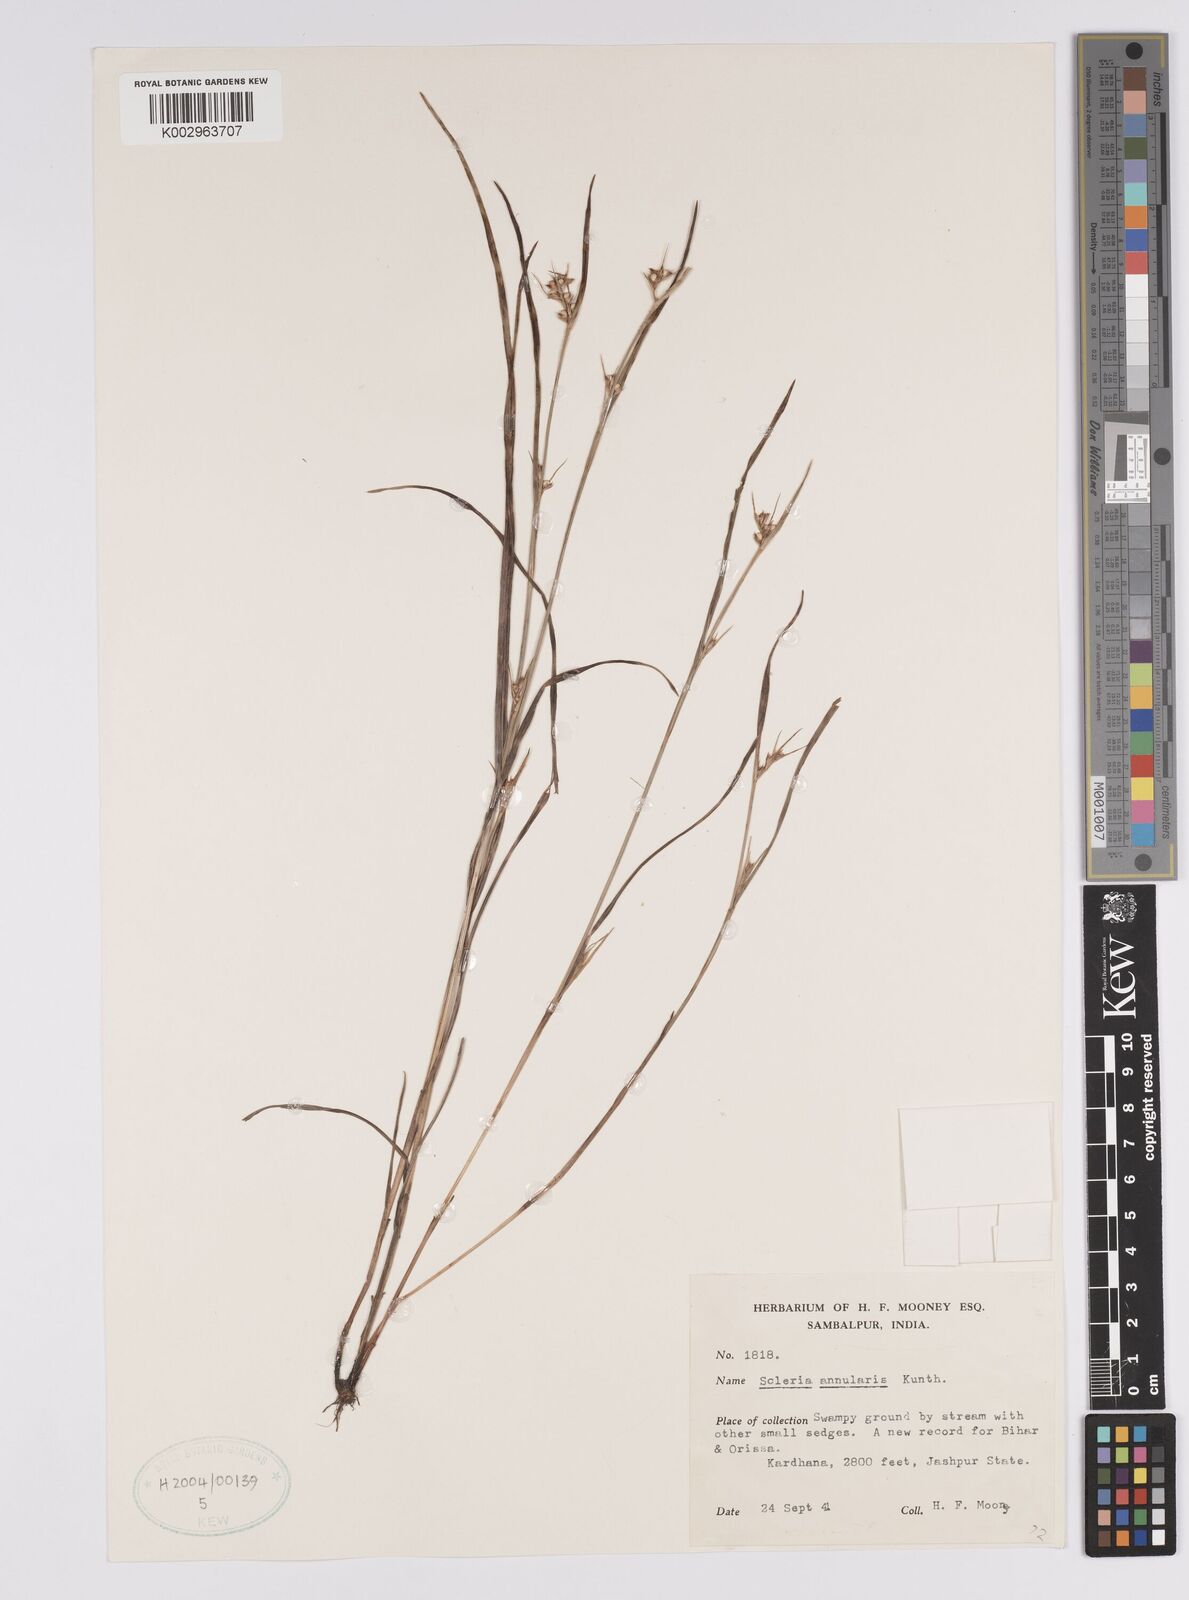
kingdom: Plantae
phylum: Tracheophyta
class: Liliopsida
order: Poales
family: Cyperaceae
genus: Scleria
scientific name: Scleria annularis
